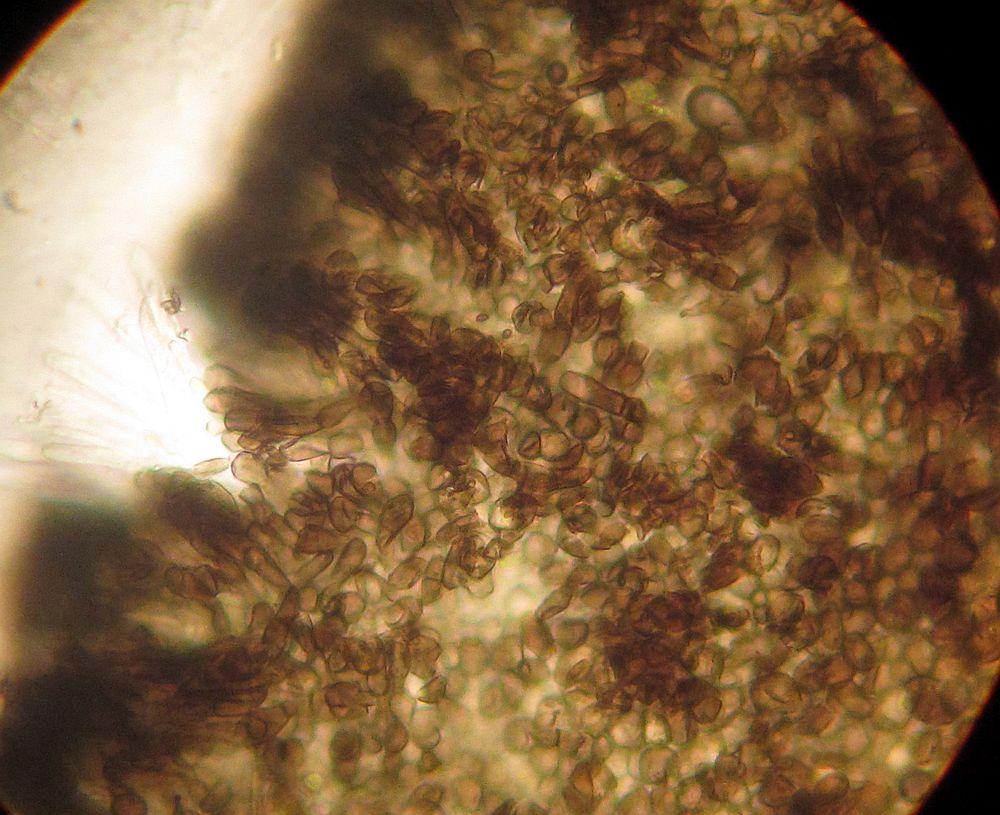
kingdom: Fungi
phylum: Ascomycota
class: Leotiomycetes
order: Helotiales
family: Mollisiaceae
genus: Mollisia
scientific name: Mollisia ligni
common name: ved-gråskive
